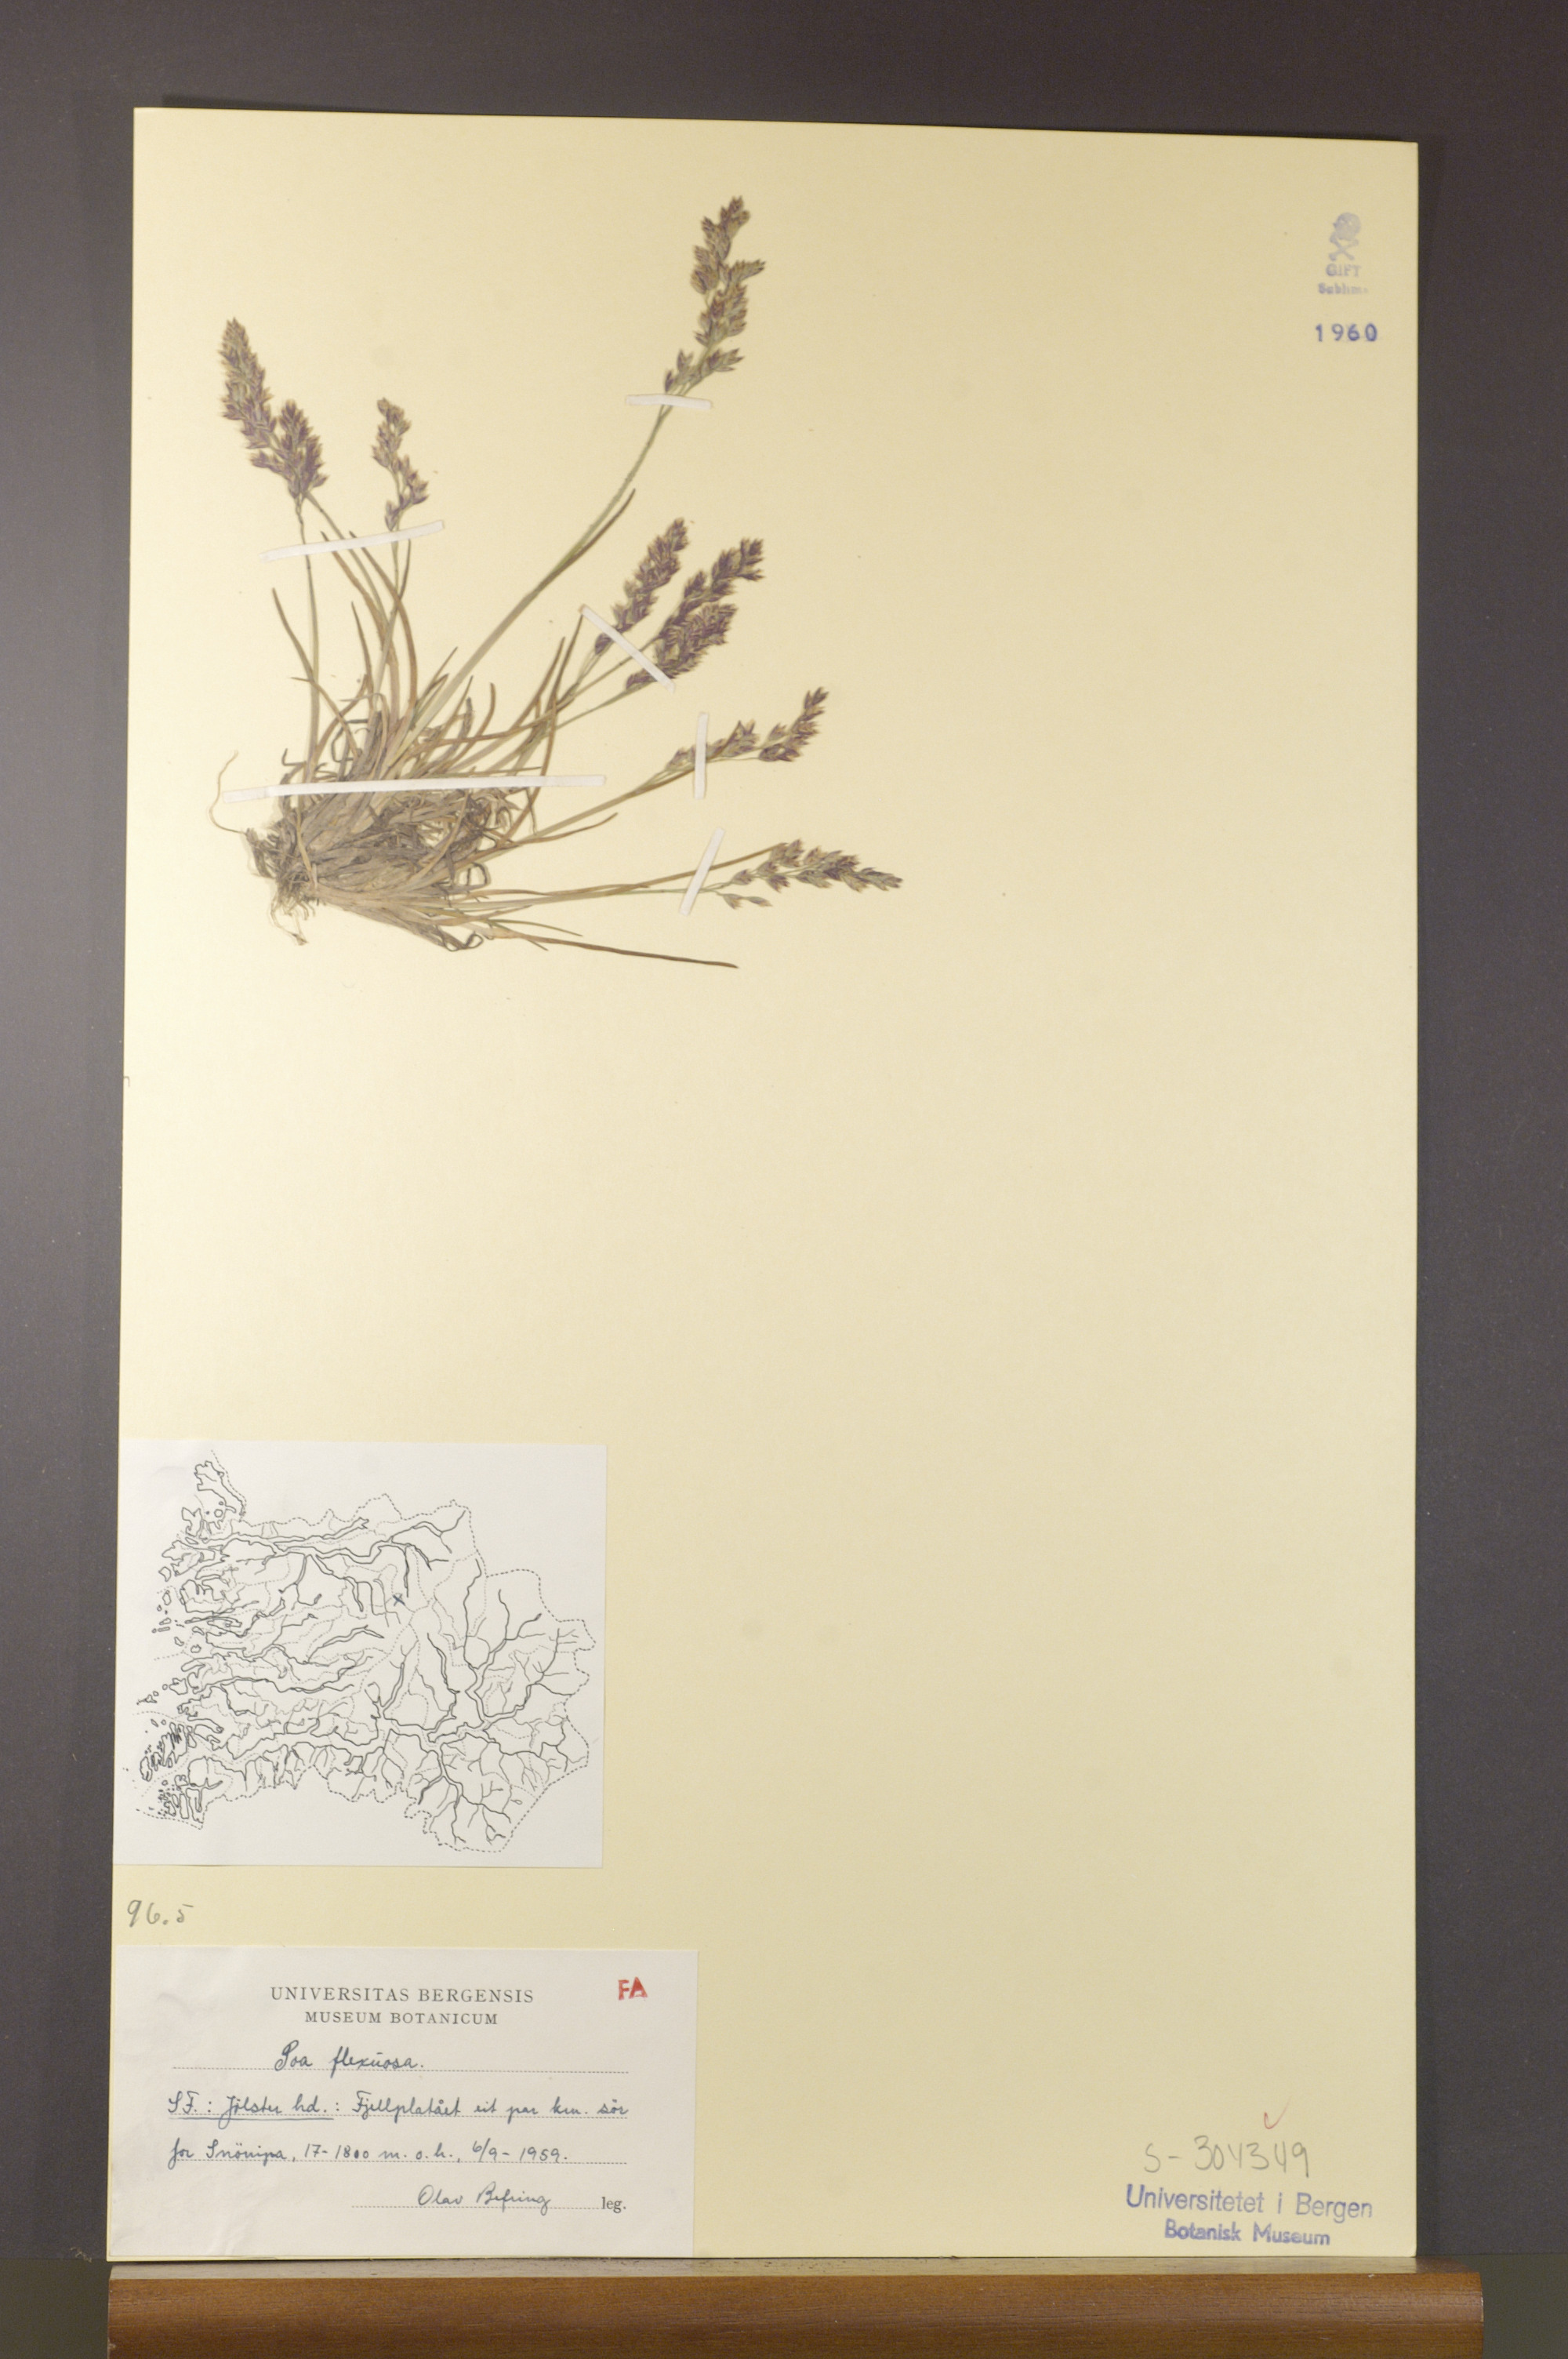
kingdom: Plantae
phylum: Tracheophyta
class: Liliopsida
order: Poales
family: Poaceae
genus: Poa
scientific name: Poa flexuosa
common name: Wavy meadow-grass
